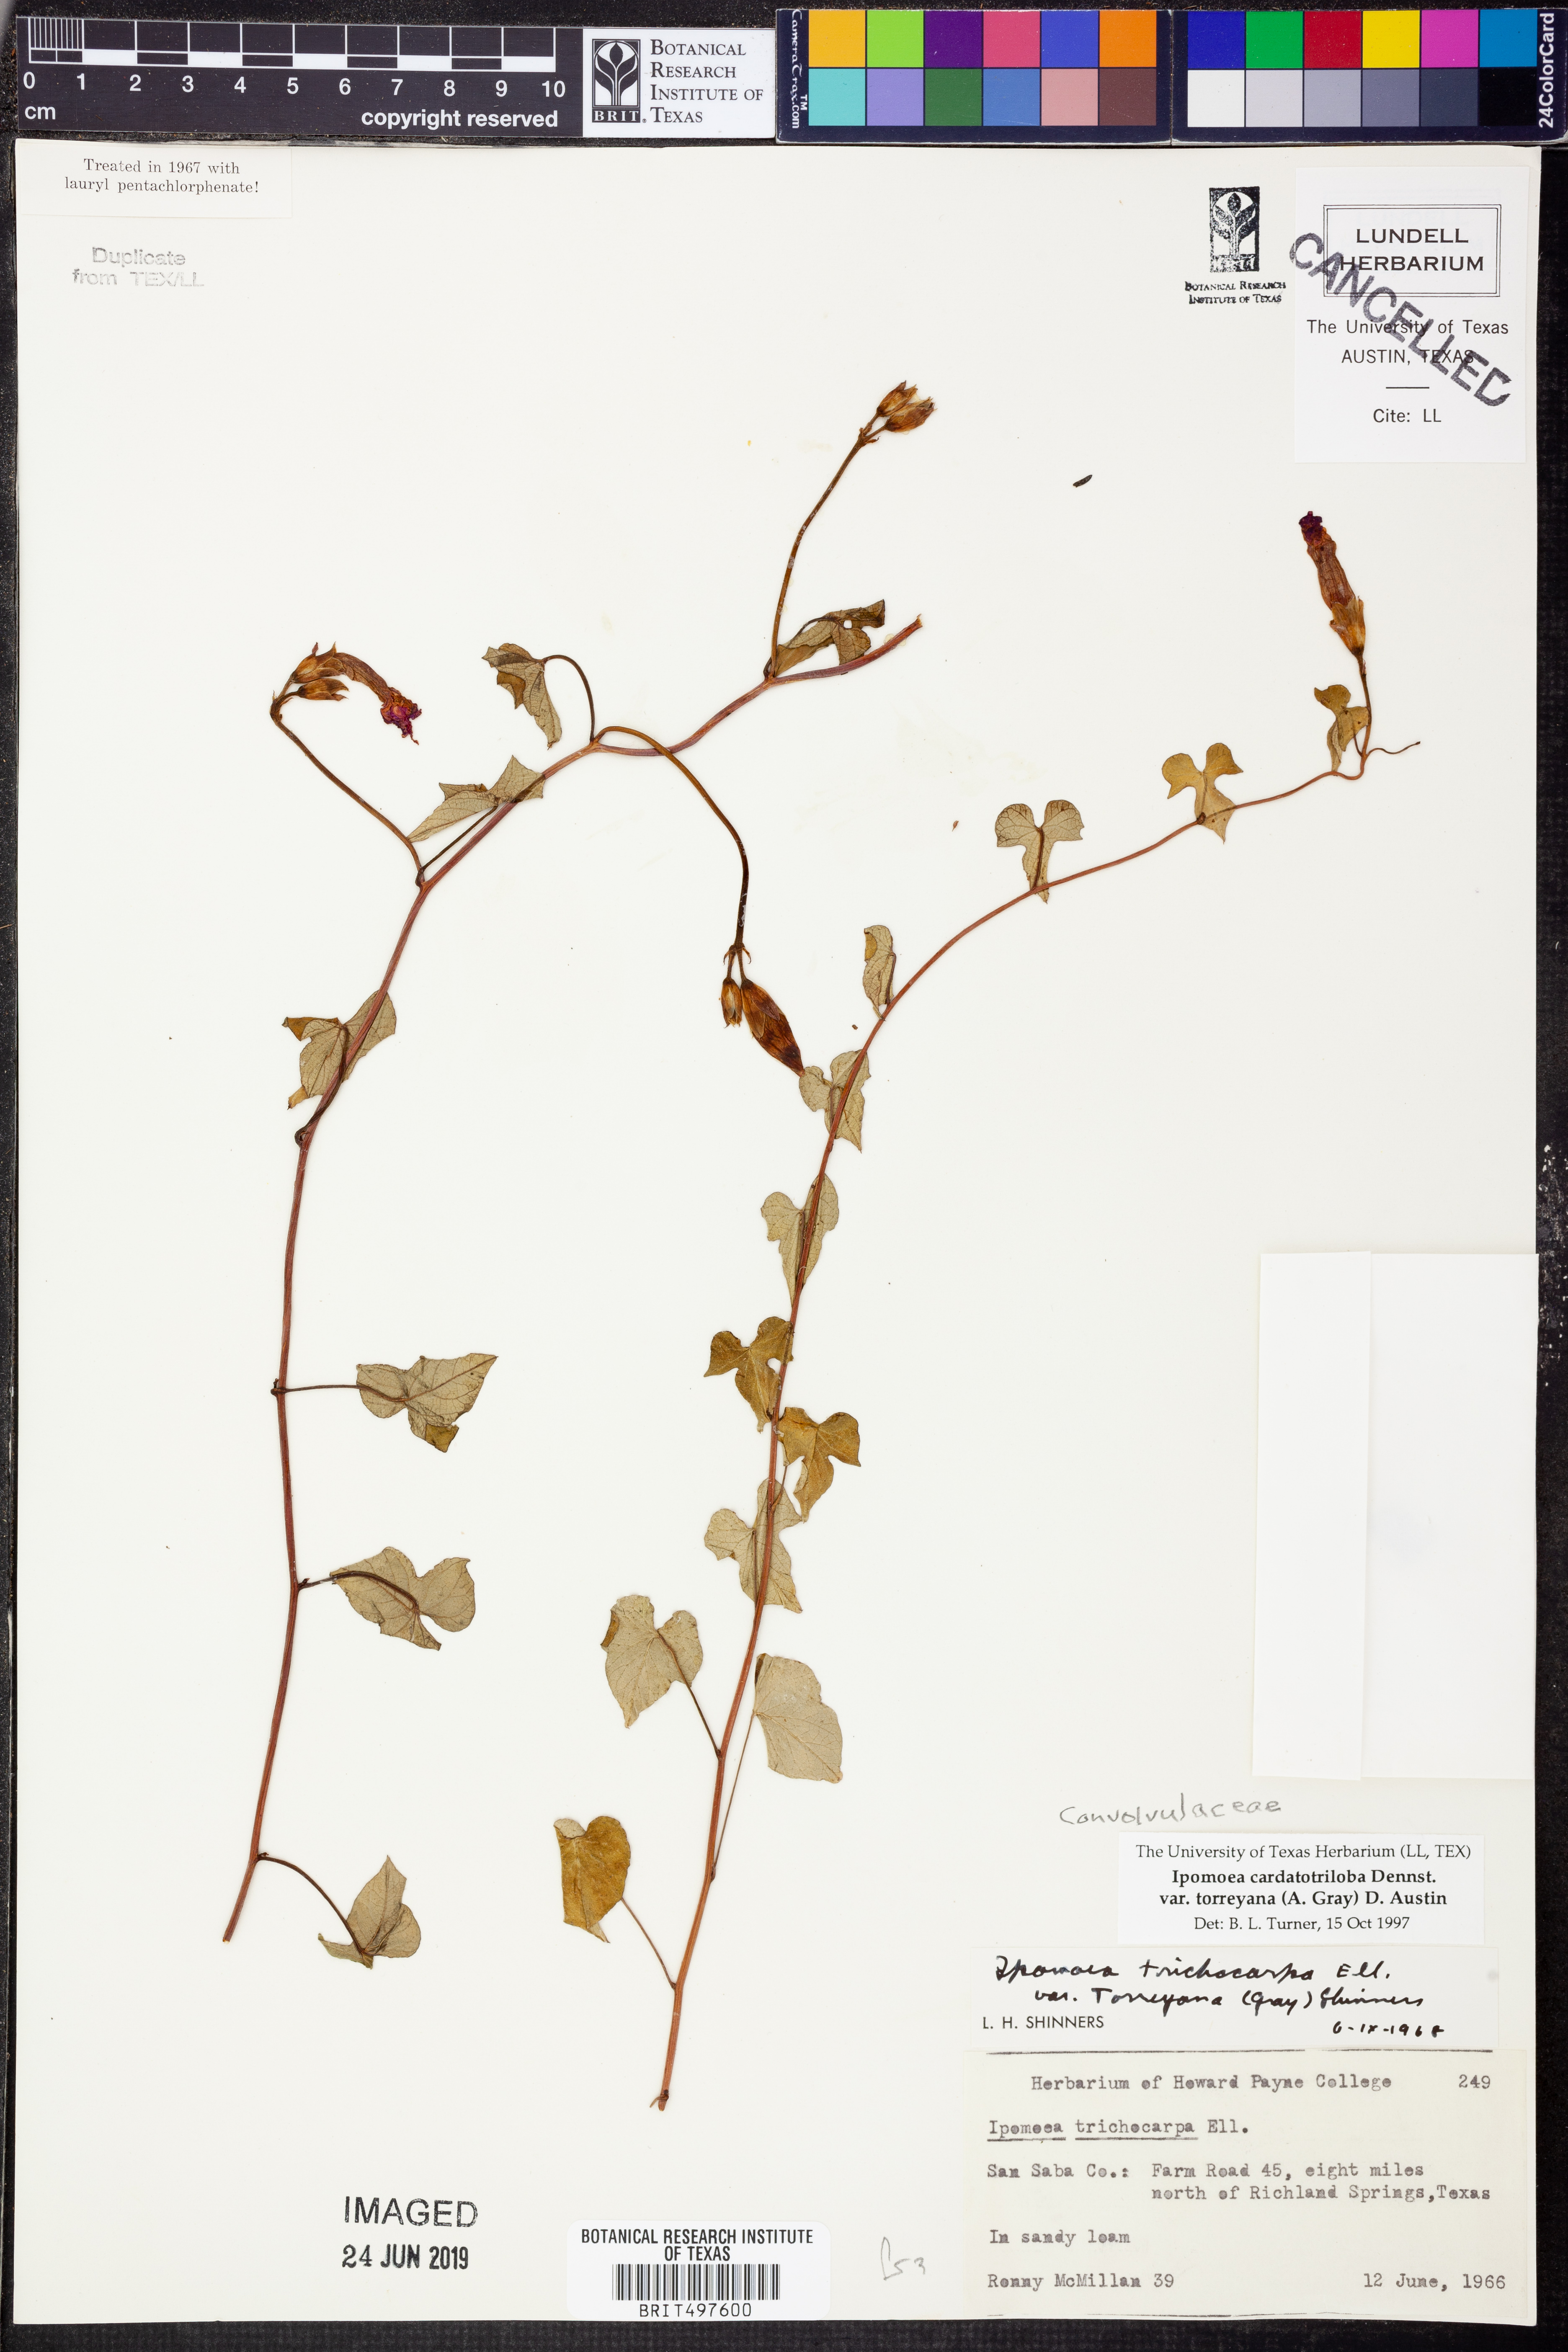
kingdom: Plantae
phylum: Tracheophyta
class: Magnoliopsida
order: Solanales
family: Convolvulaceae
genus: Ipomoea
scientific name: Ipomoea cordatotriloba
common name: Cotton morning glory
